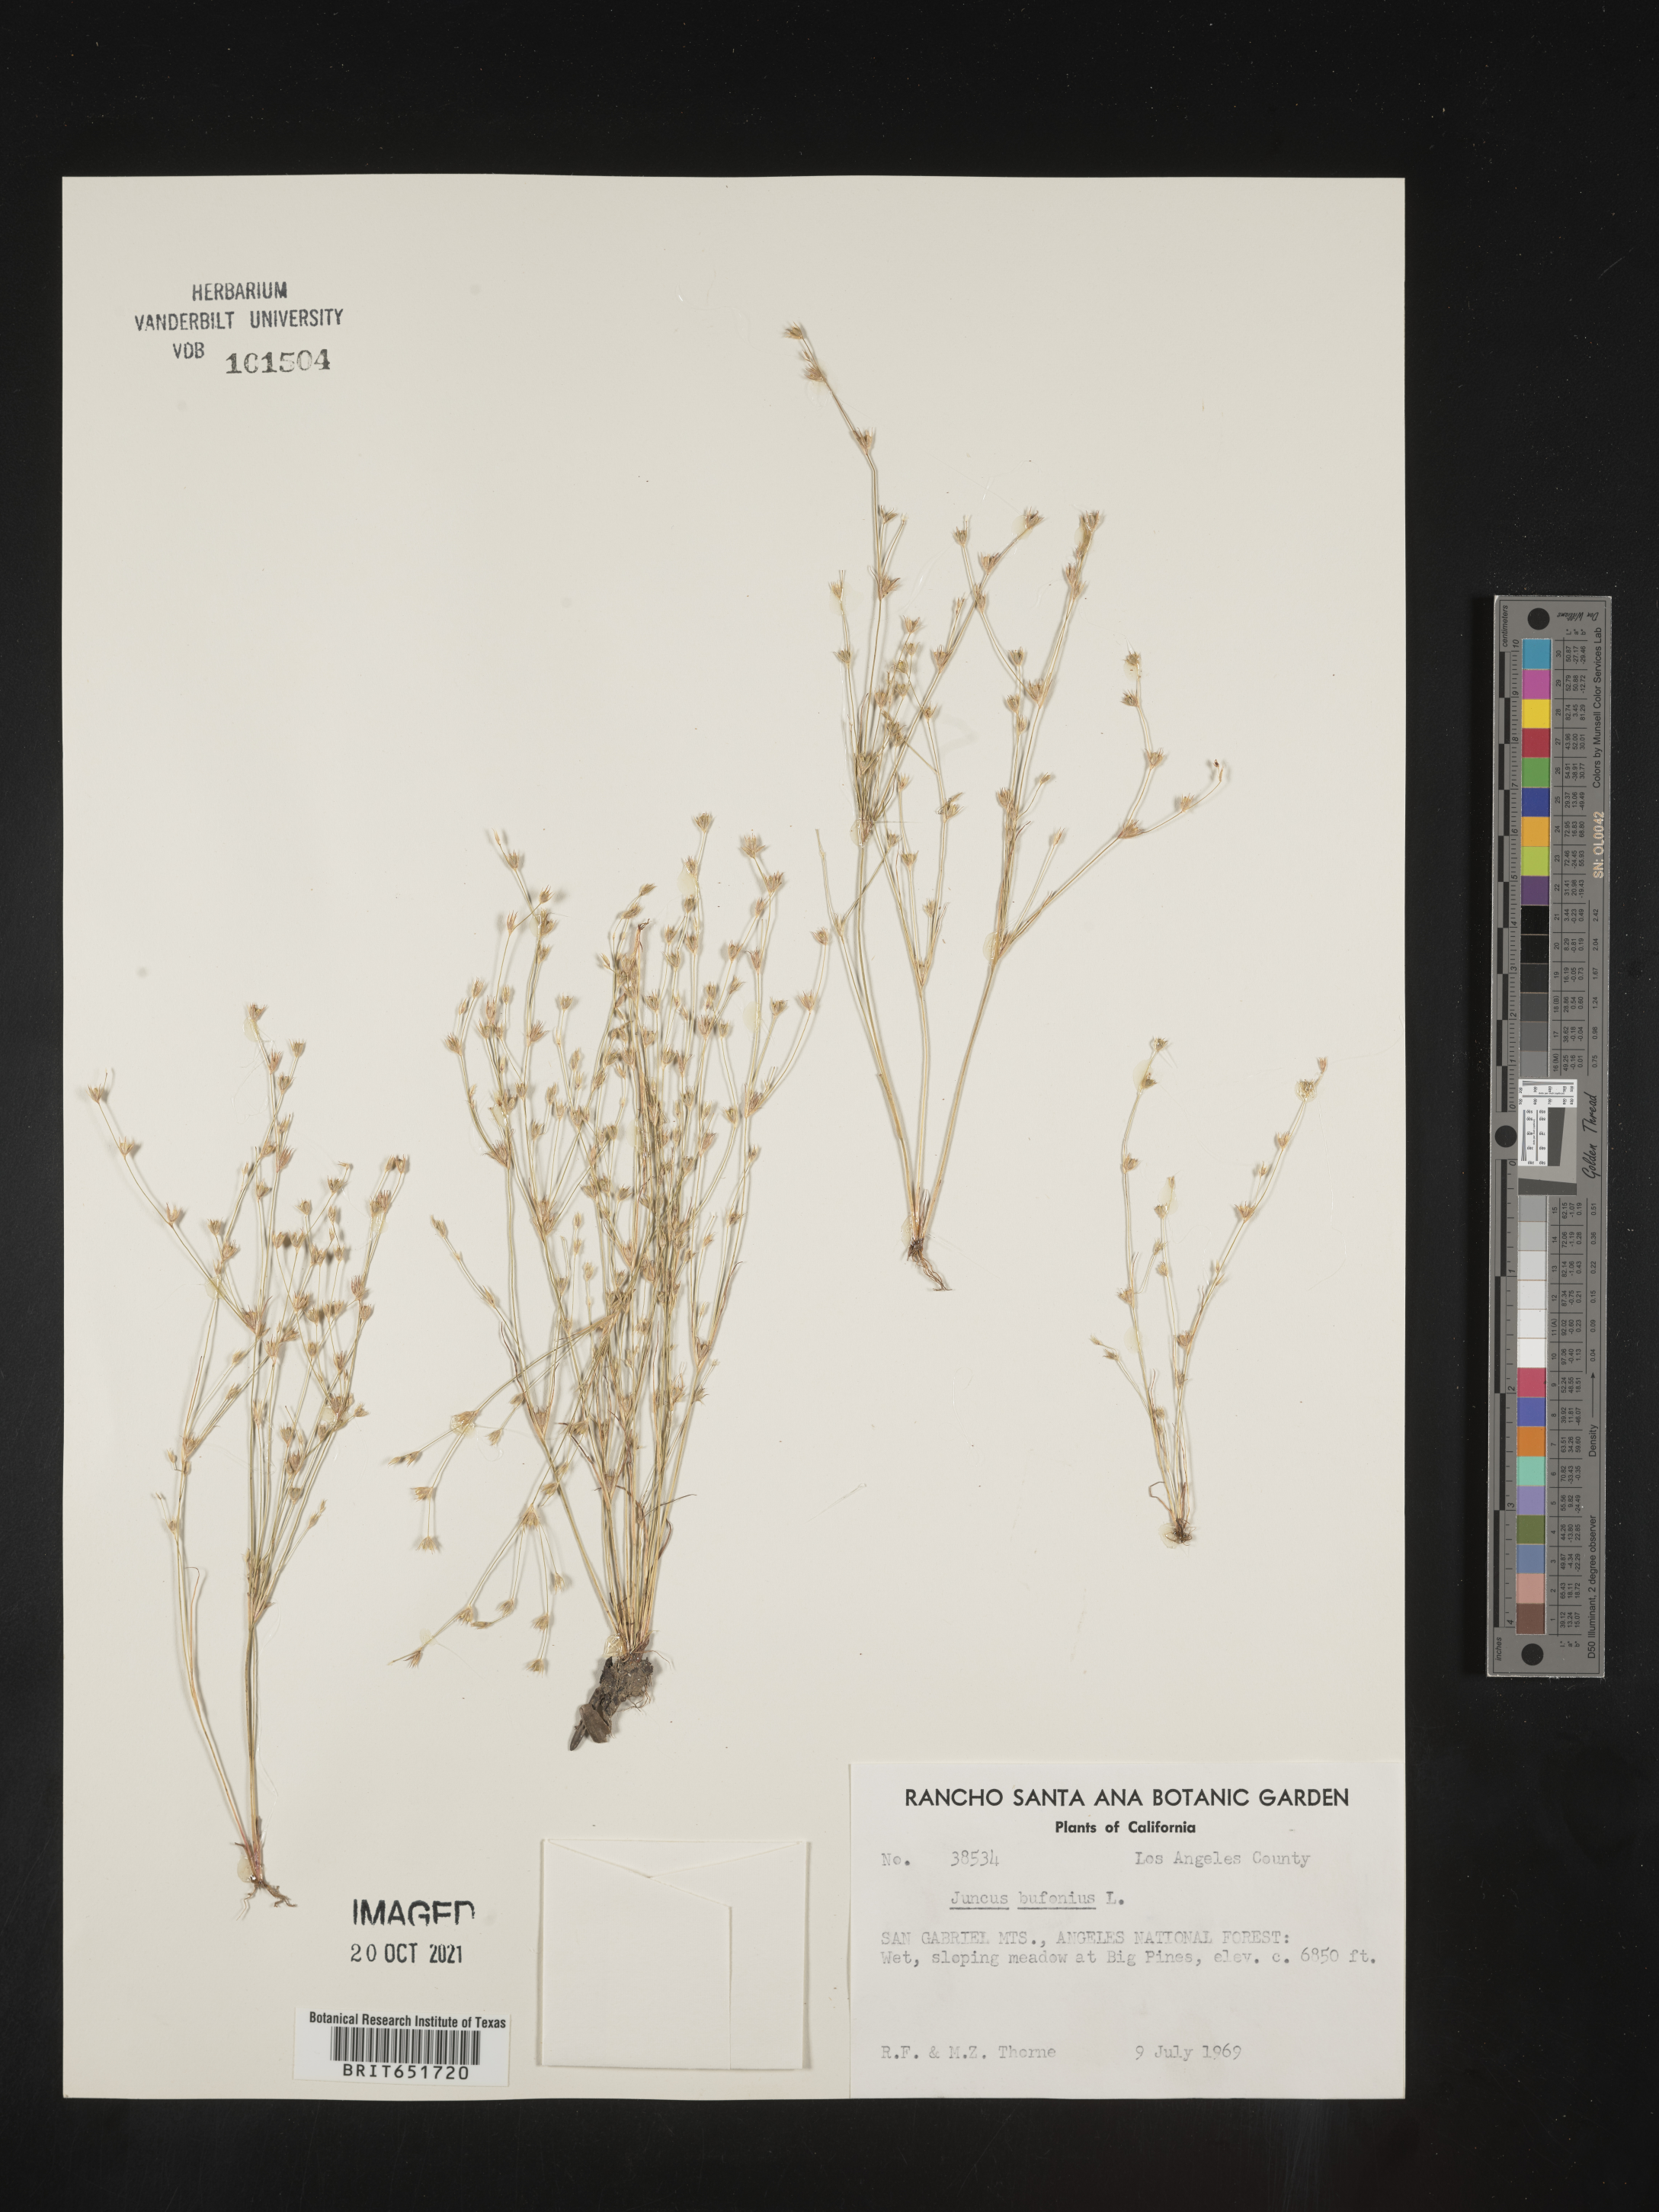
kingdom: Plantae
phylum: Tracheophyta
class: Liliopsida
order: Poales
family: Juncaceae
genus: Juncus
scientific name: Juncus bufonius
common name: Toad rush
